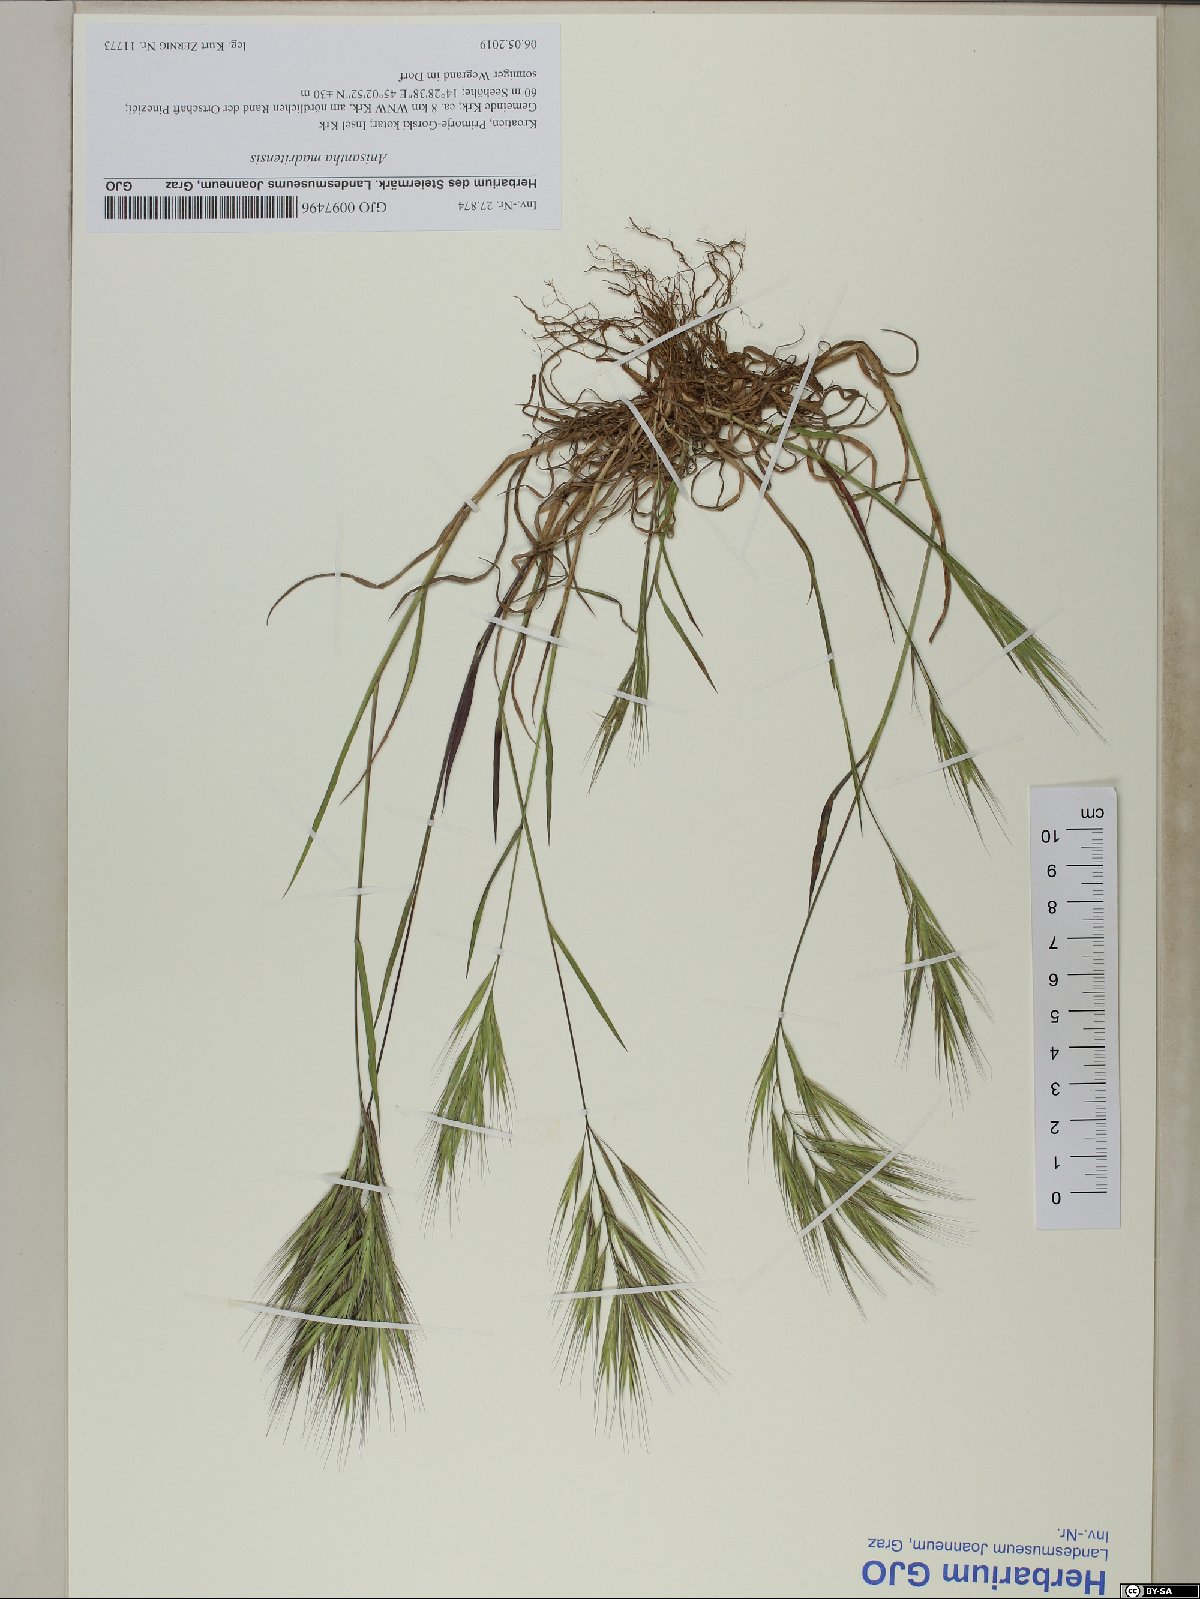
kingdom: Plantae
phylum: Tracheophyta
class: Liliopsida
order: Poales
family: Poaceae
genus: Bromus
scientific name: Bromus madritensis
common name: Compact brome
